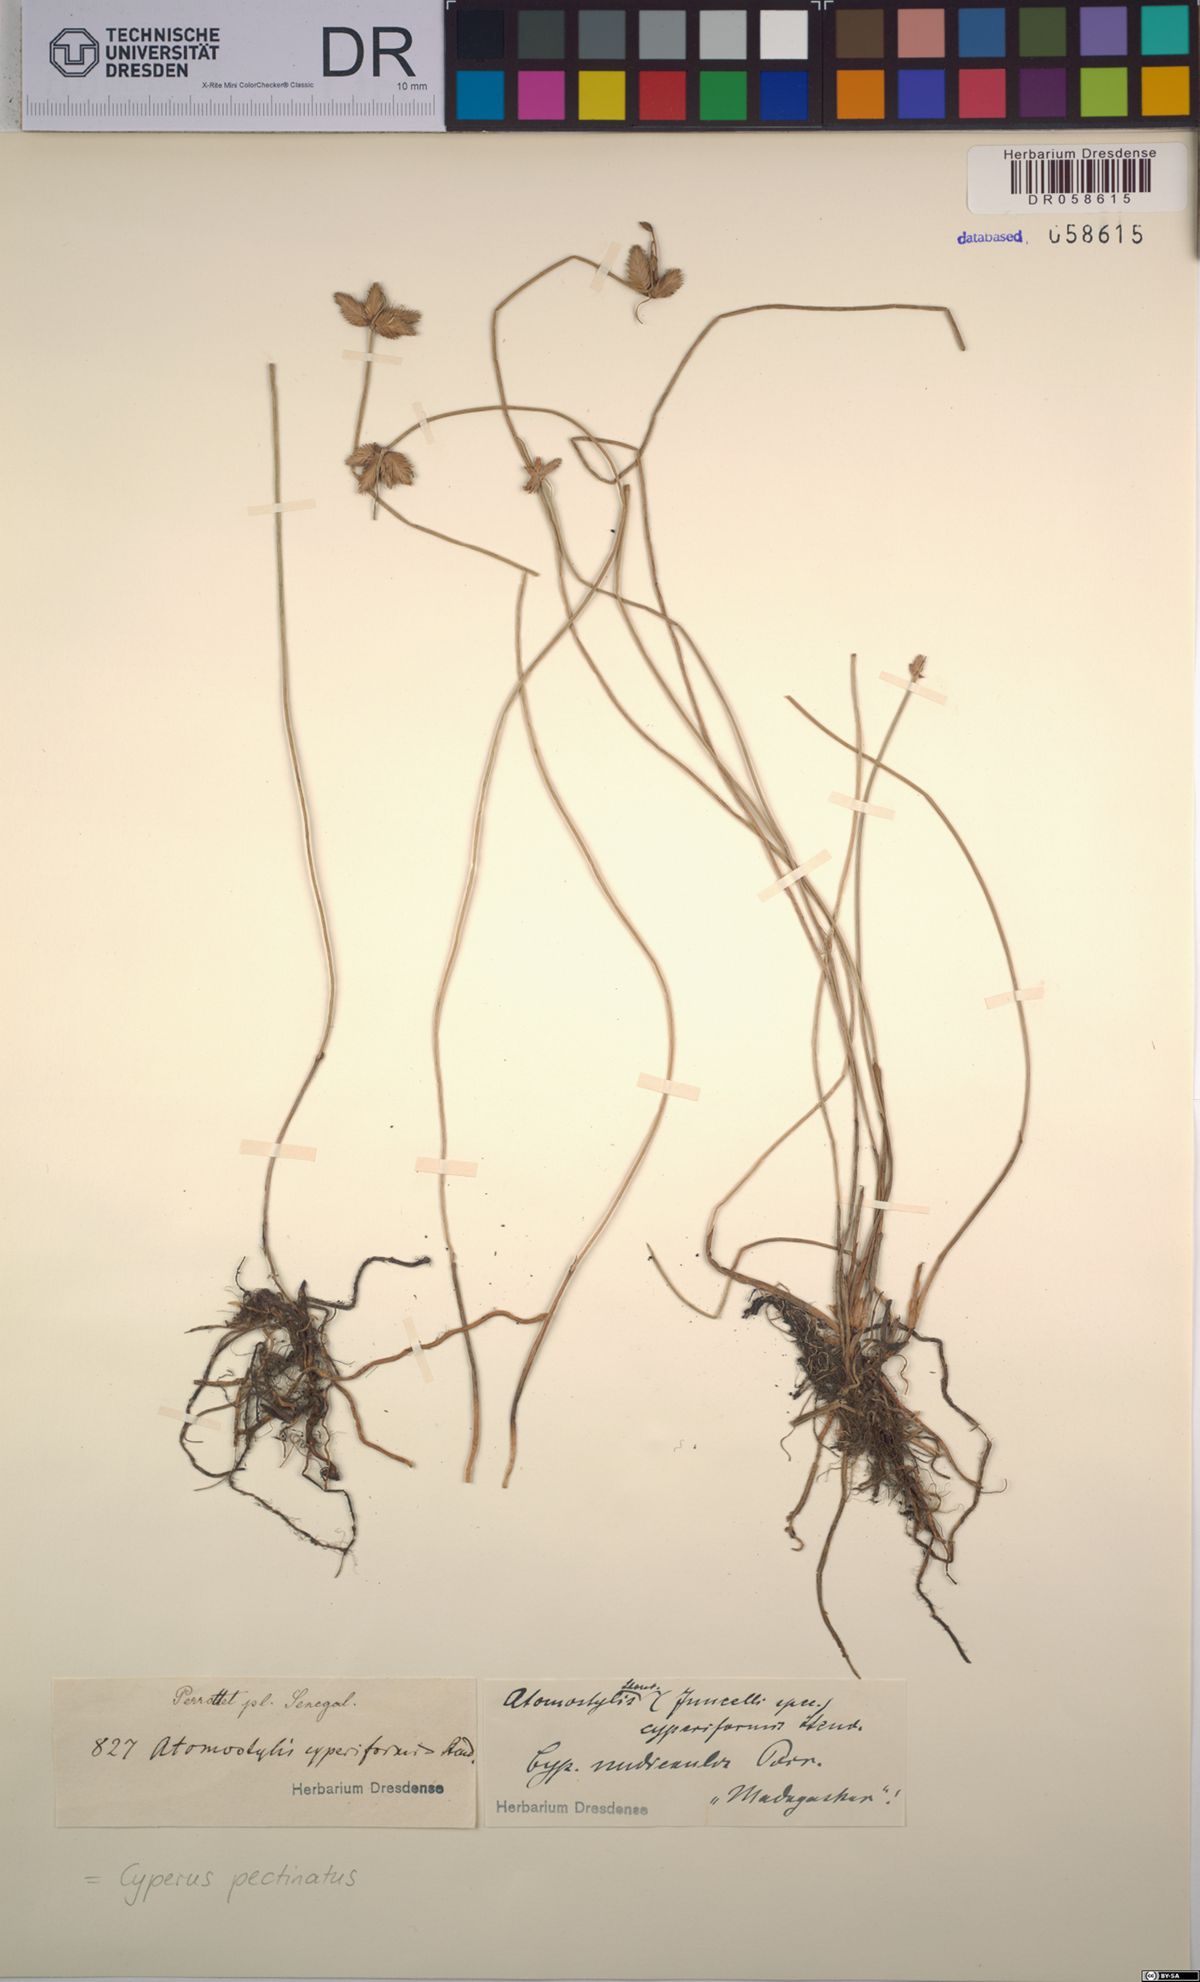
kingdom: Plantae
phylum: Tracheophyta
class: Liliopsida
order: Poales
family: Cyperaceae
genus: Cyperus
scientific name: Cyperus pectinatus
